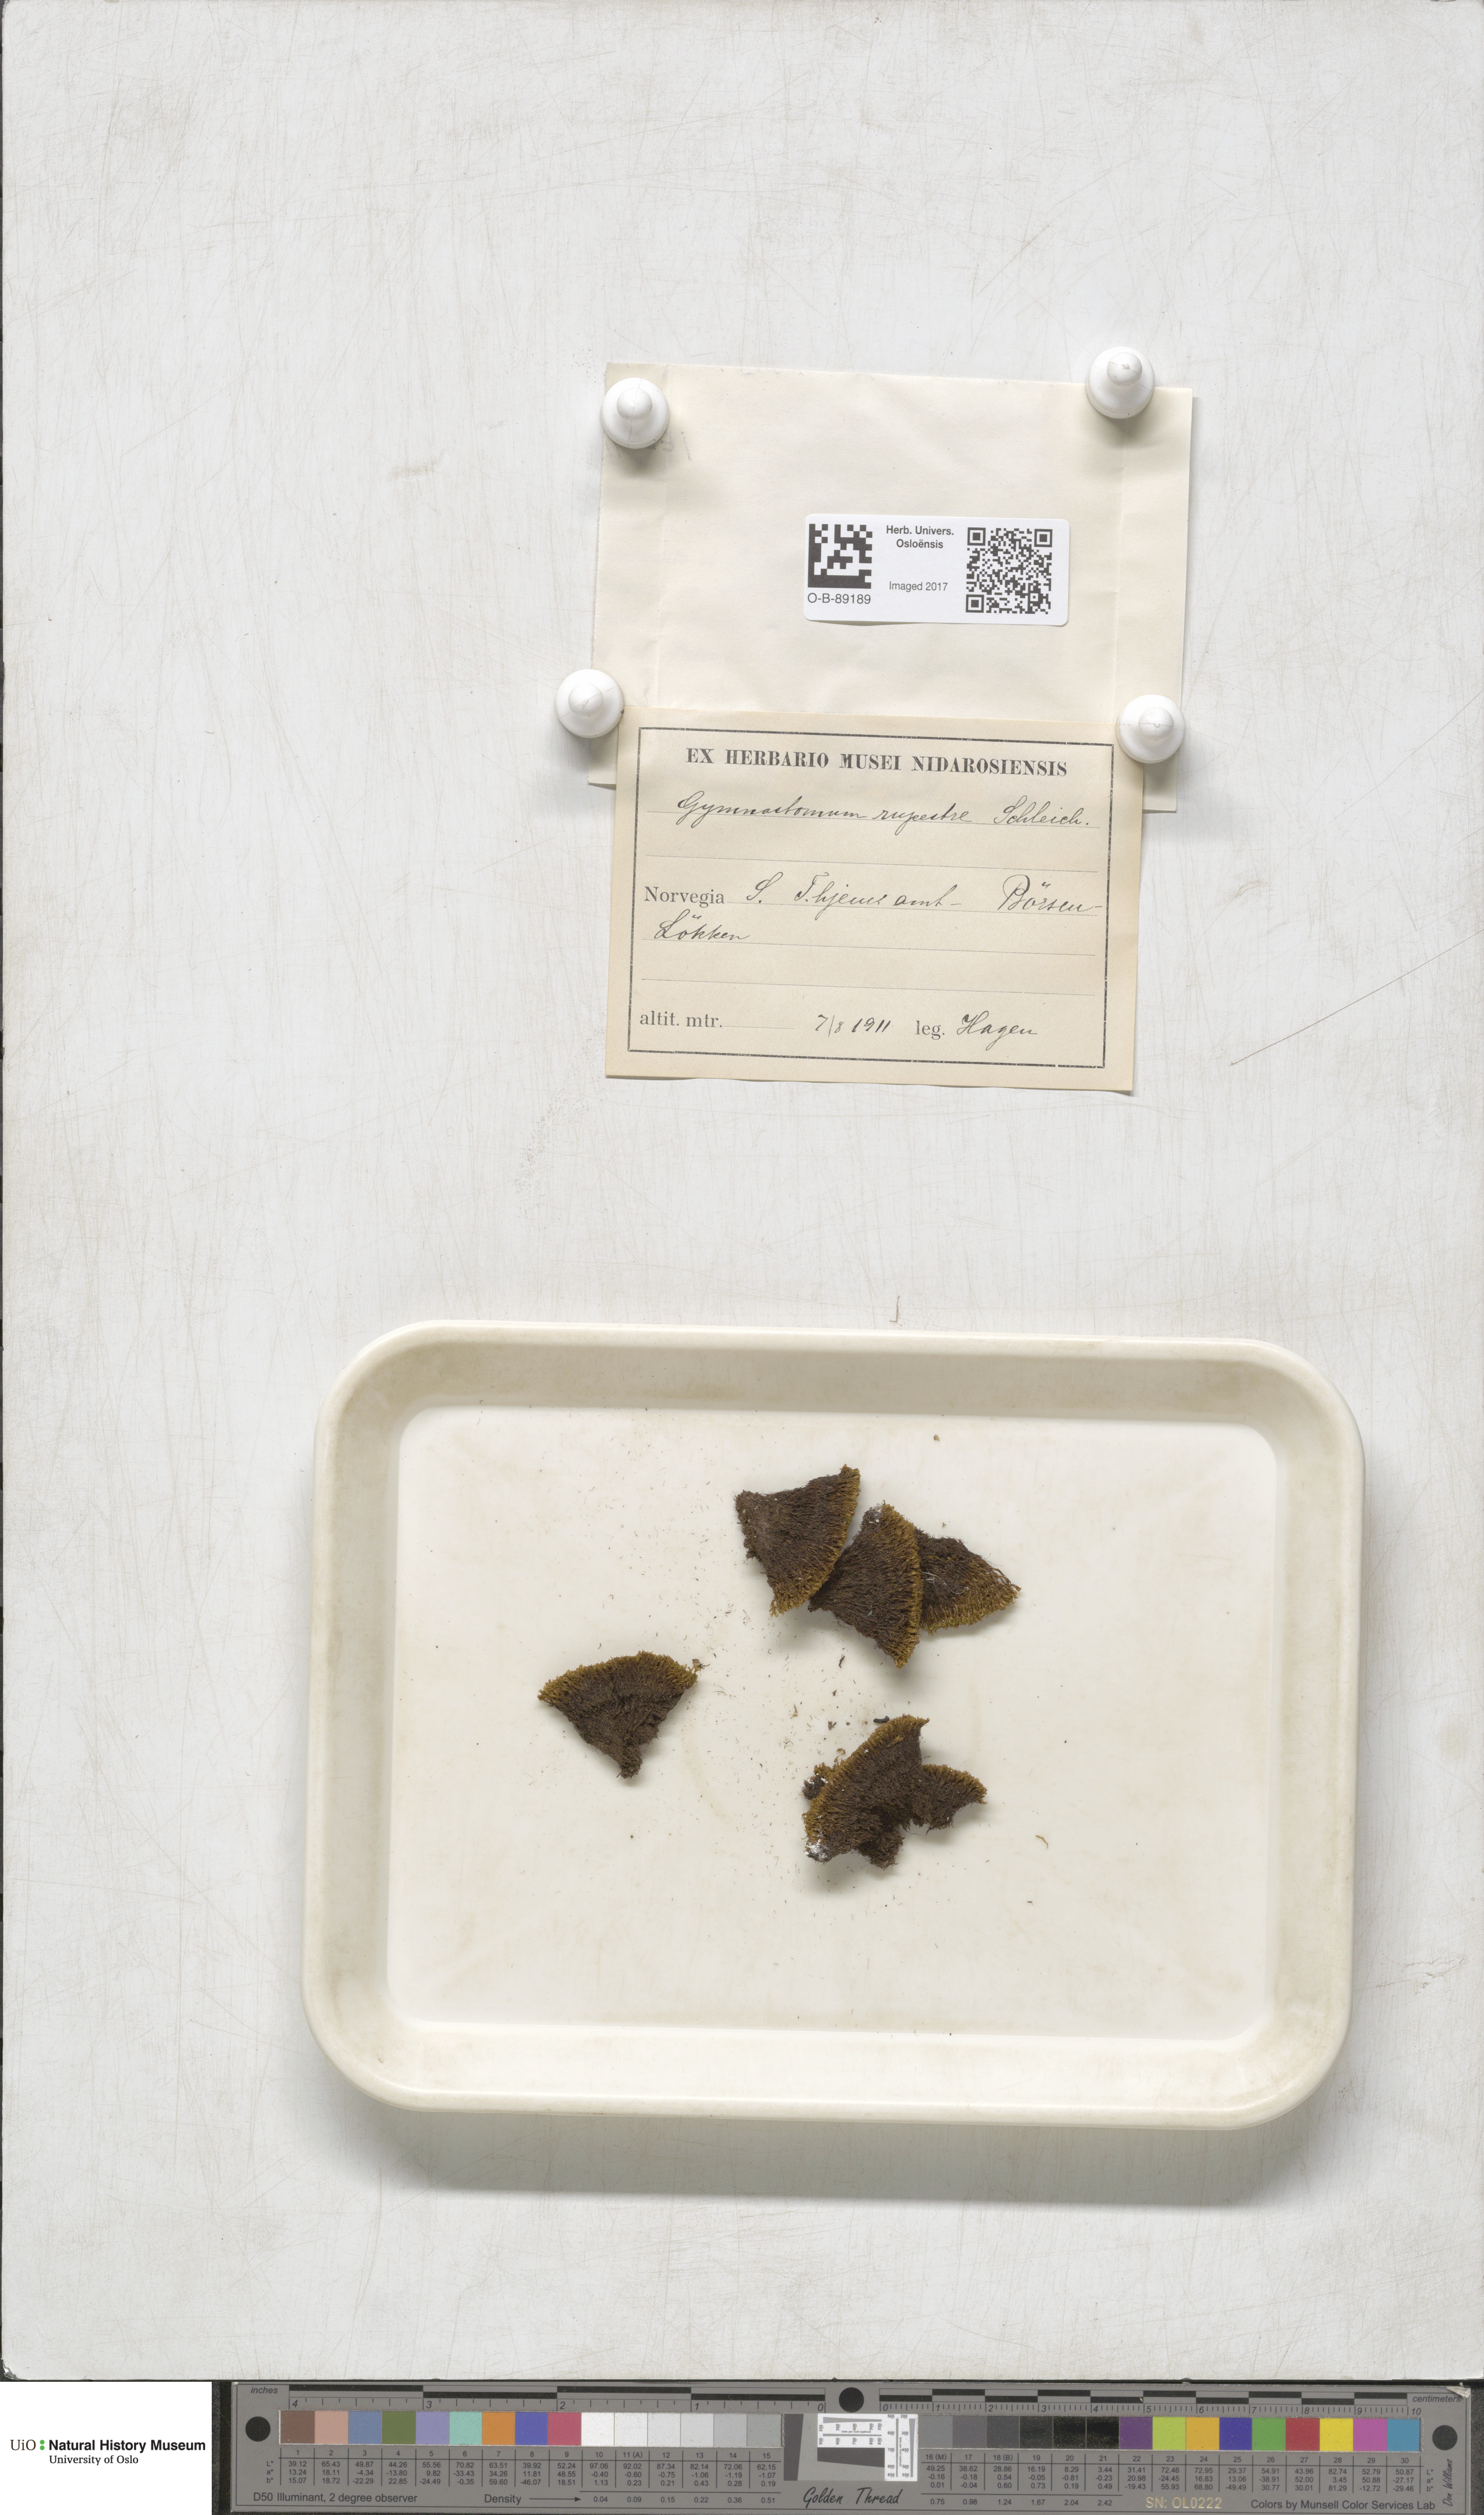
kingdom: Plantae
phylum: Bryophyta
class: Bryopsida
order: Pottiales
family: Pottiaceae
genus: Gymnostomum
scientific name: Gymnostomum aeruginosum
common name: Verdigris tufa-moss
